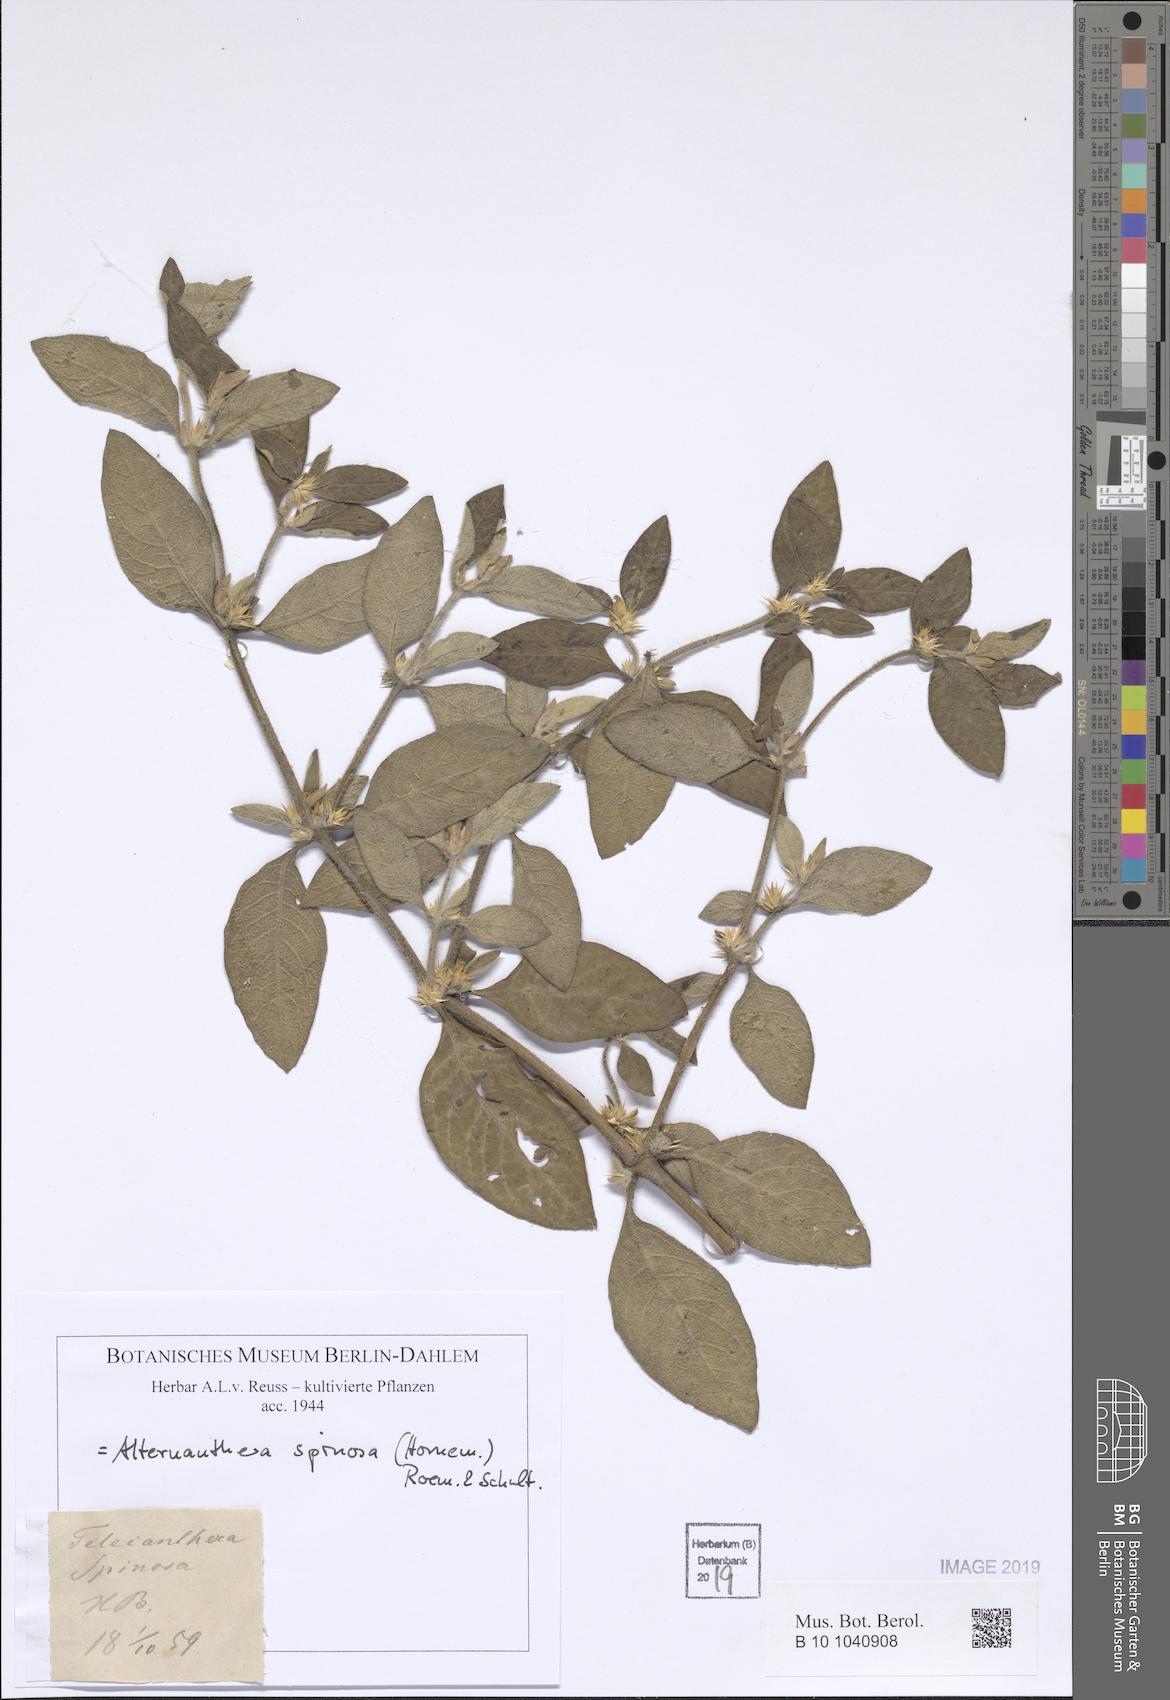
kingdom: Plantae
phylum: Tracheophyta
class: Magnoliopsida
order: Caryophyllales
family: Amaranthaceae
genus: Alternanthera
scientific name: Alternanthera spinosa
